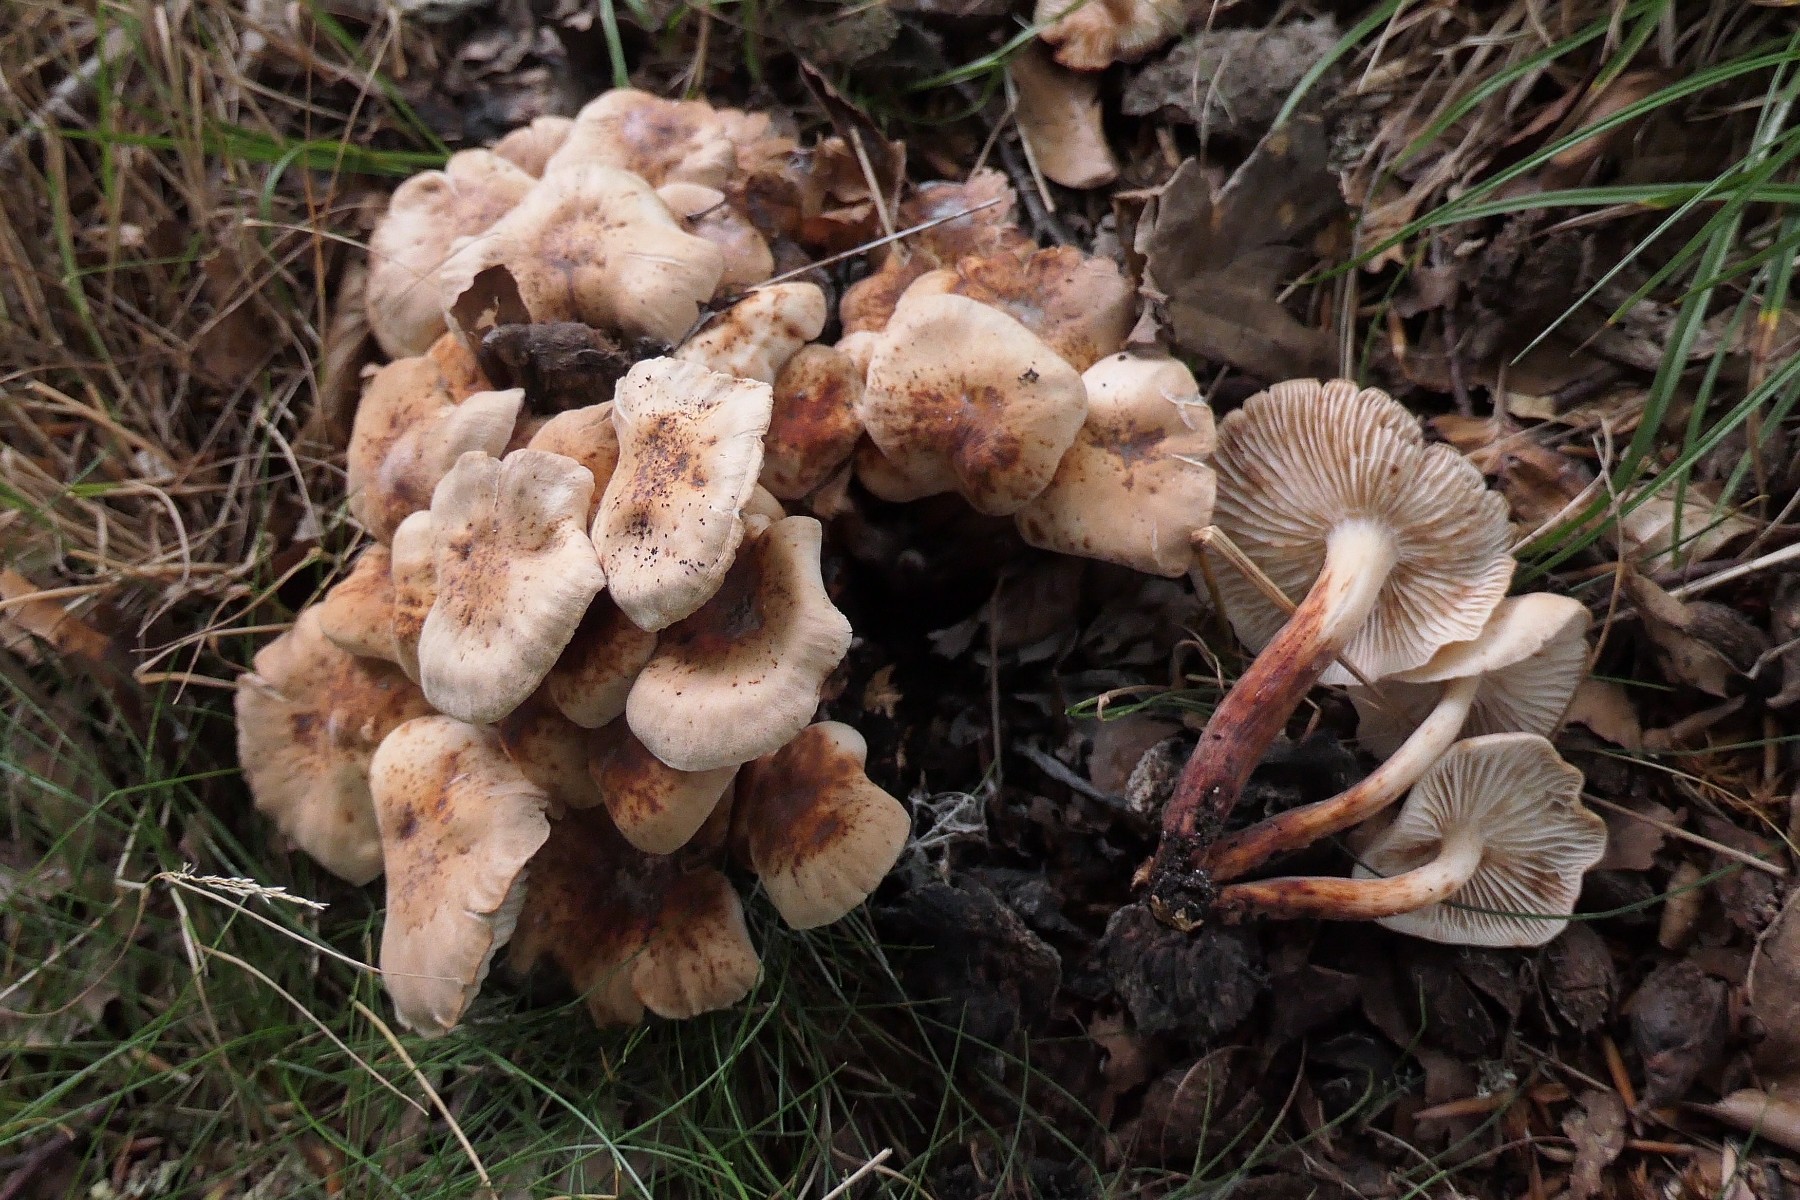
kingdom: Fungi
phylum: Basidiomycota
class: Agaricomycetes
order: Agaricales
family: Omphalotaceae
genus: Gymnopus
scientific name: Gymnopus fusipes
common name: tenstokket fladhat
